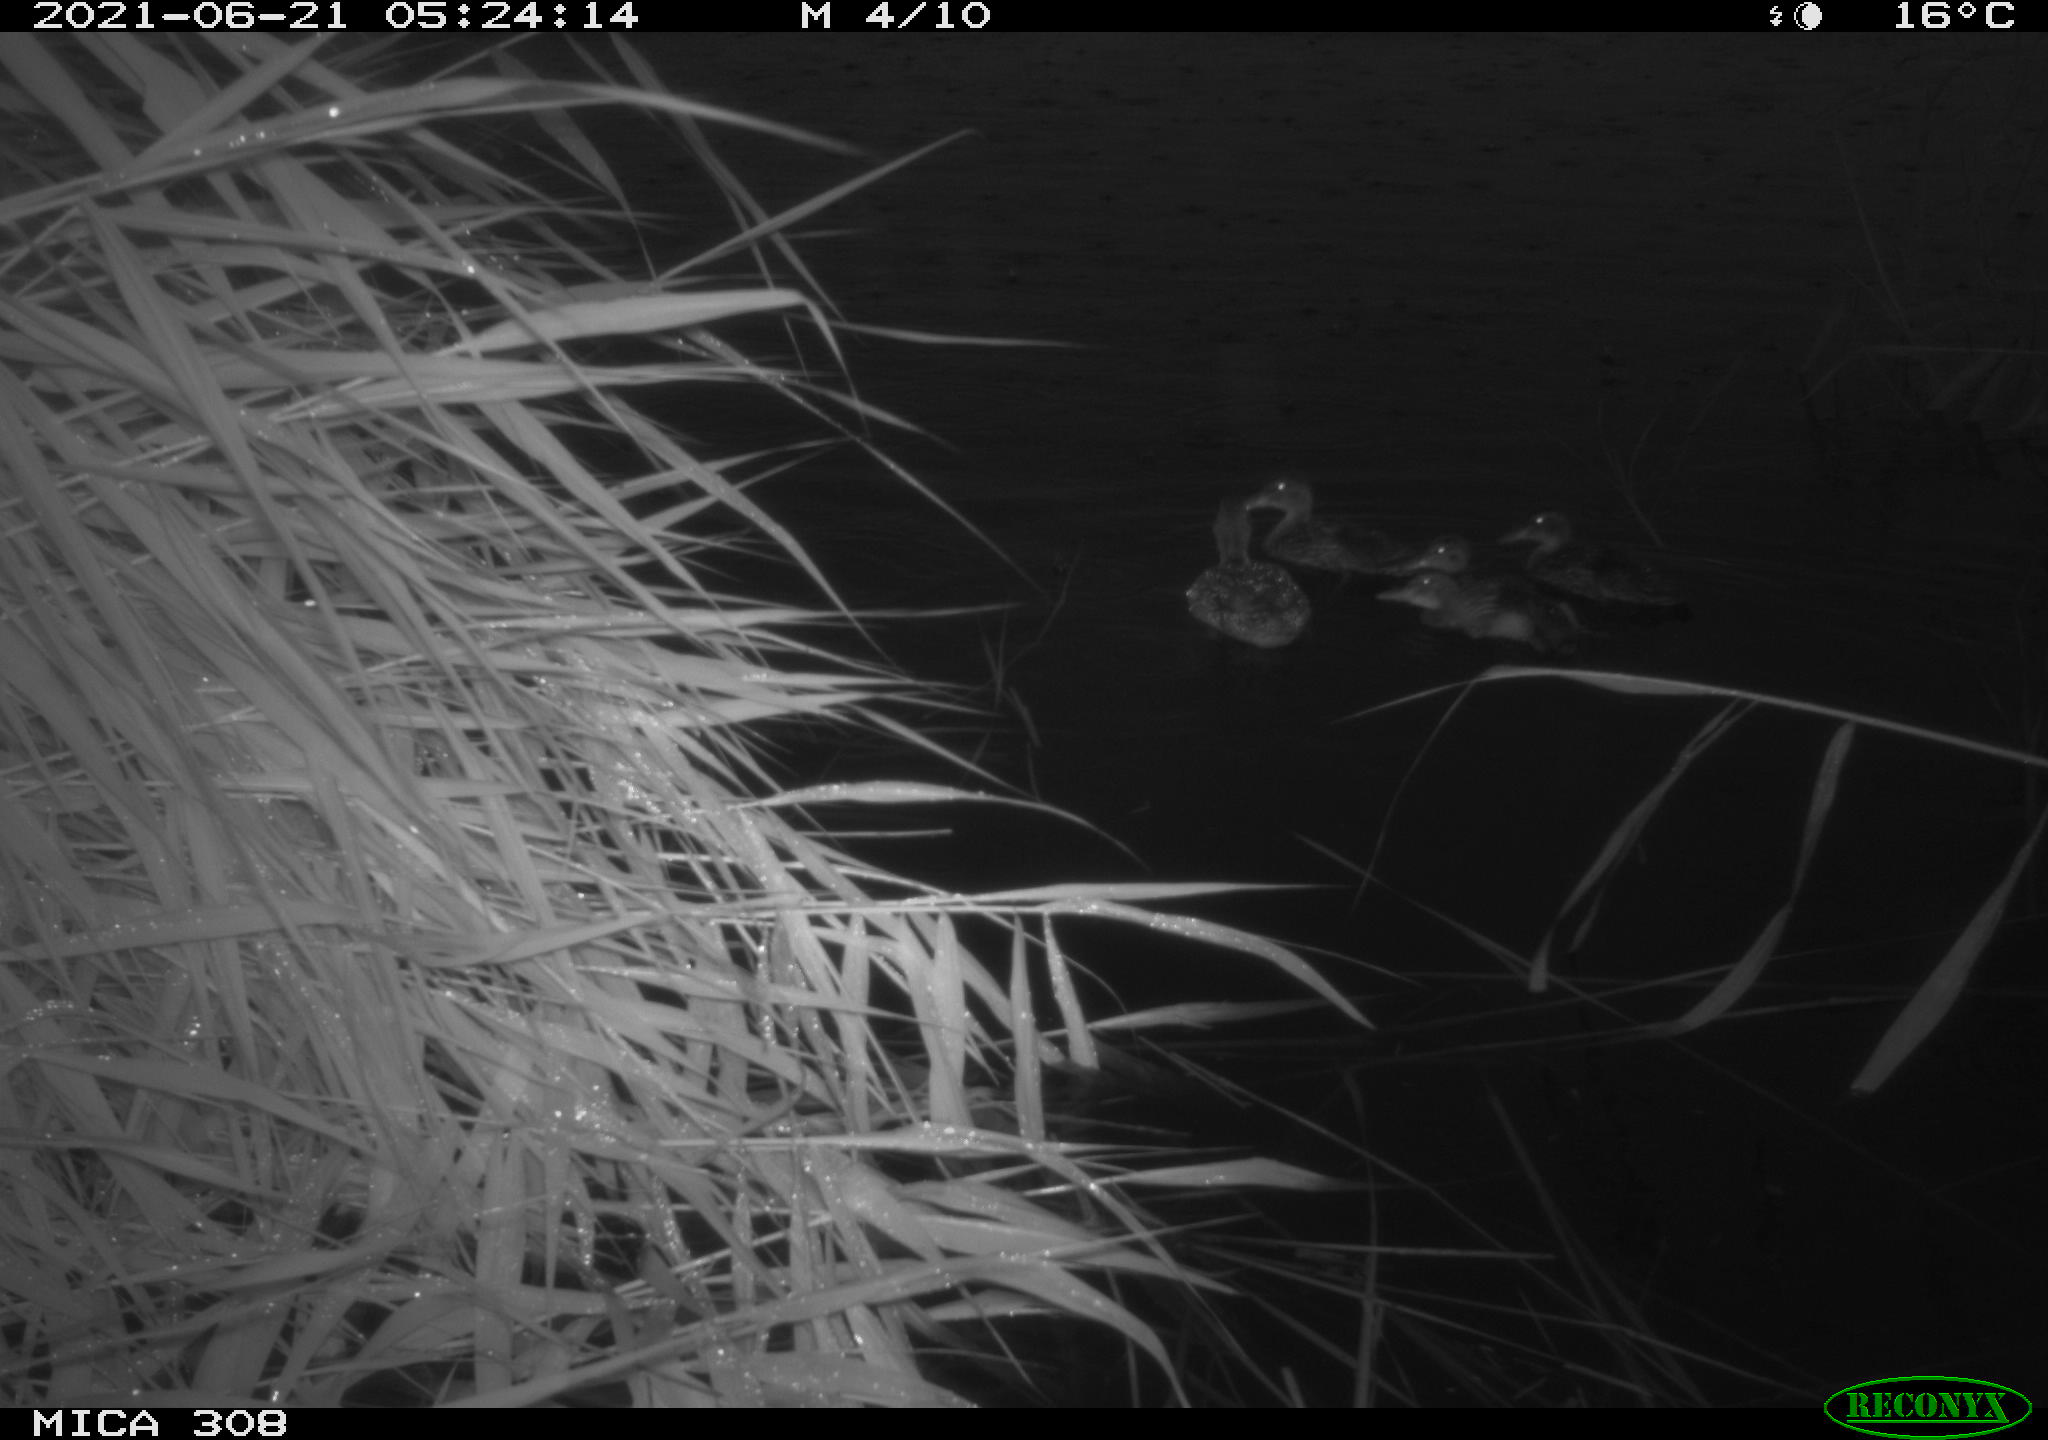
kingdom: Animalia
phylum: Chordata
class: Aves
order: Anseriformes
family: Anatidae
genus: Anas
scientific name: Anas platyrhynchos
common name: Mallard
